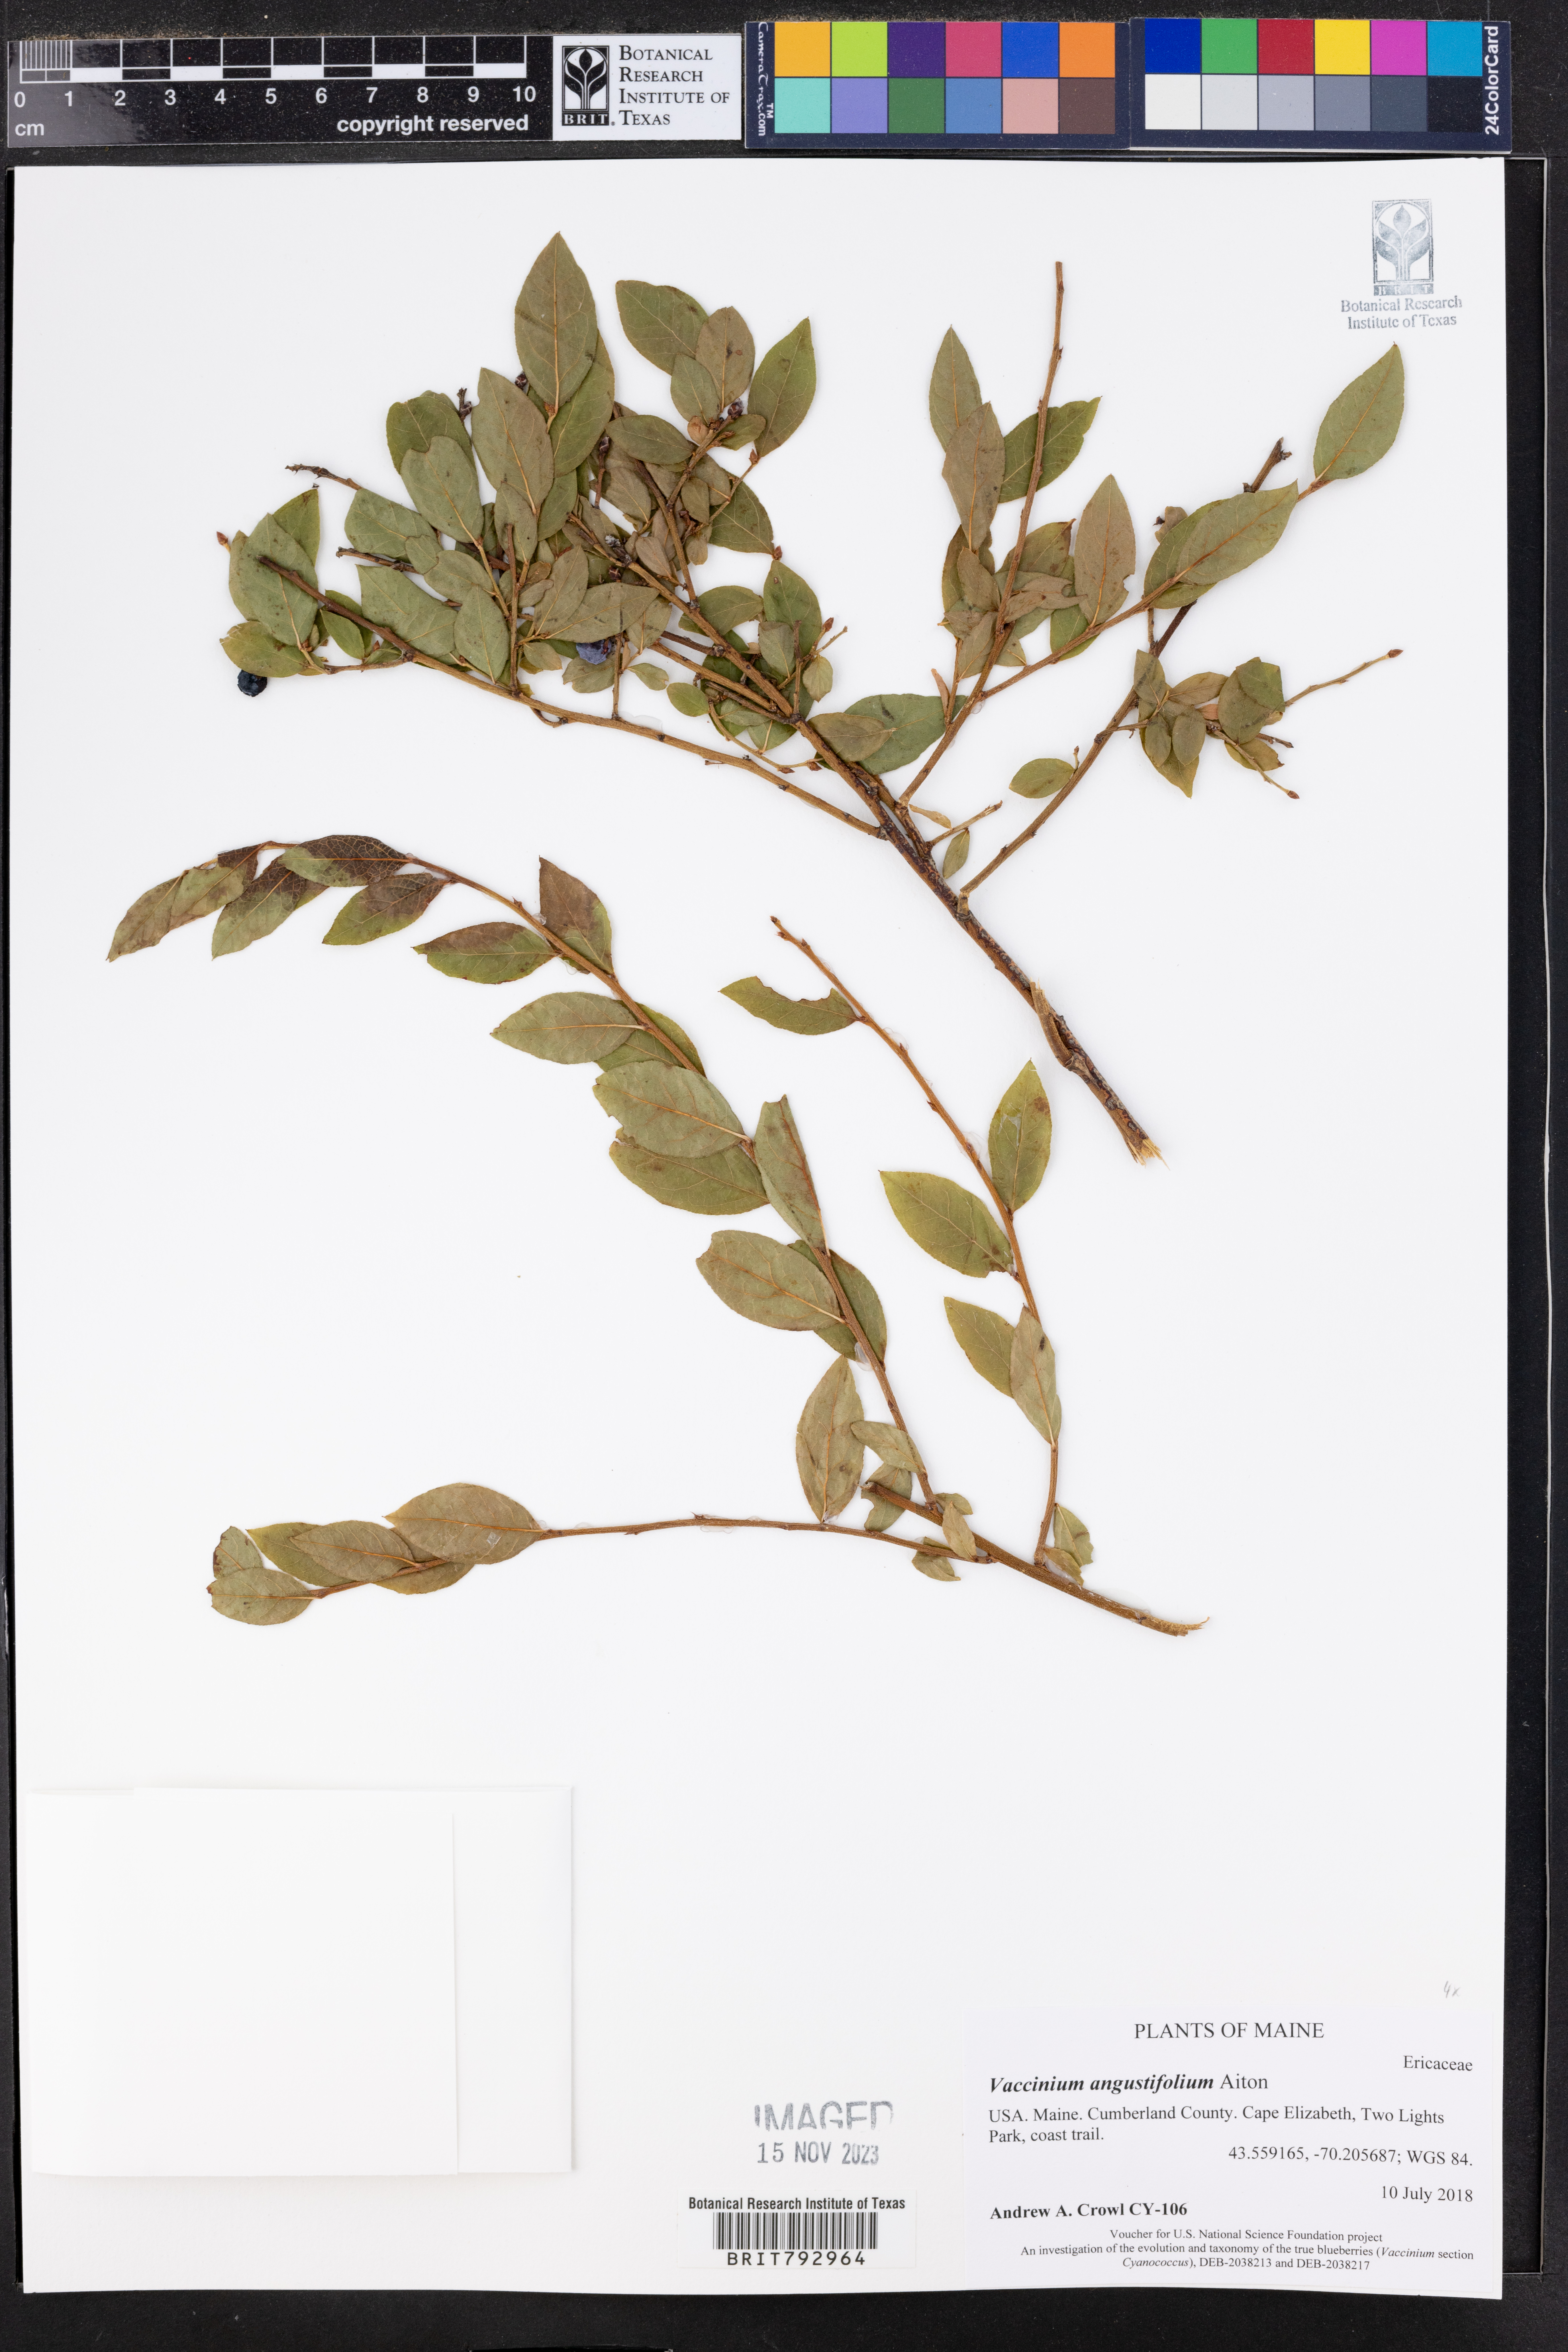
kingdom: Plantae
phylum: Tracheophyta
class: Magnoliopsida
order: Ericales
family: Ericaceae
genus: Vaccinium
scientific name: Vaccinium angustifolium
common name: Early lowbush blueberry
